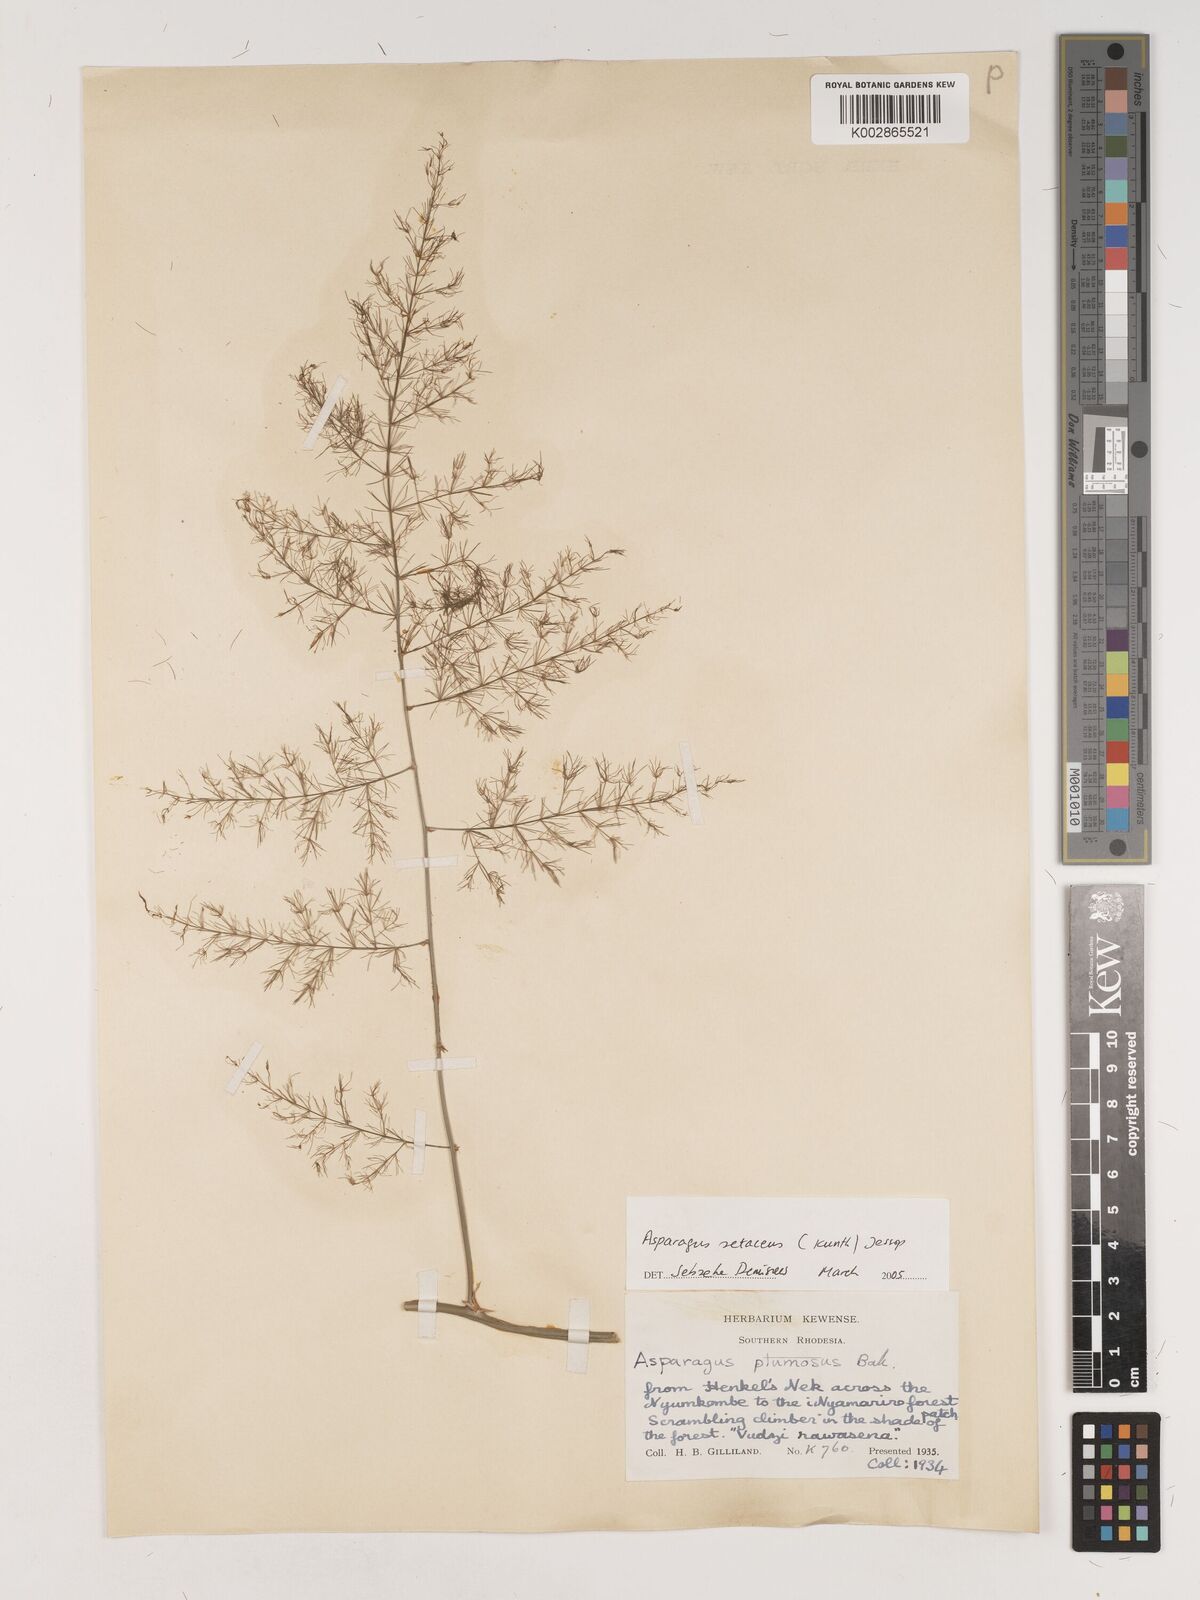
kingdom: Plantae
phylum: Tracheophyta
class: Liliopsida
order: Asparagales
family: Asparagaceae
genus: Asparagus
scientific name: Asparagus setaceus
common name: Common asparagus fern
